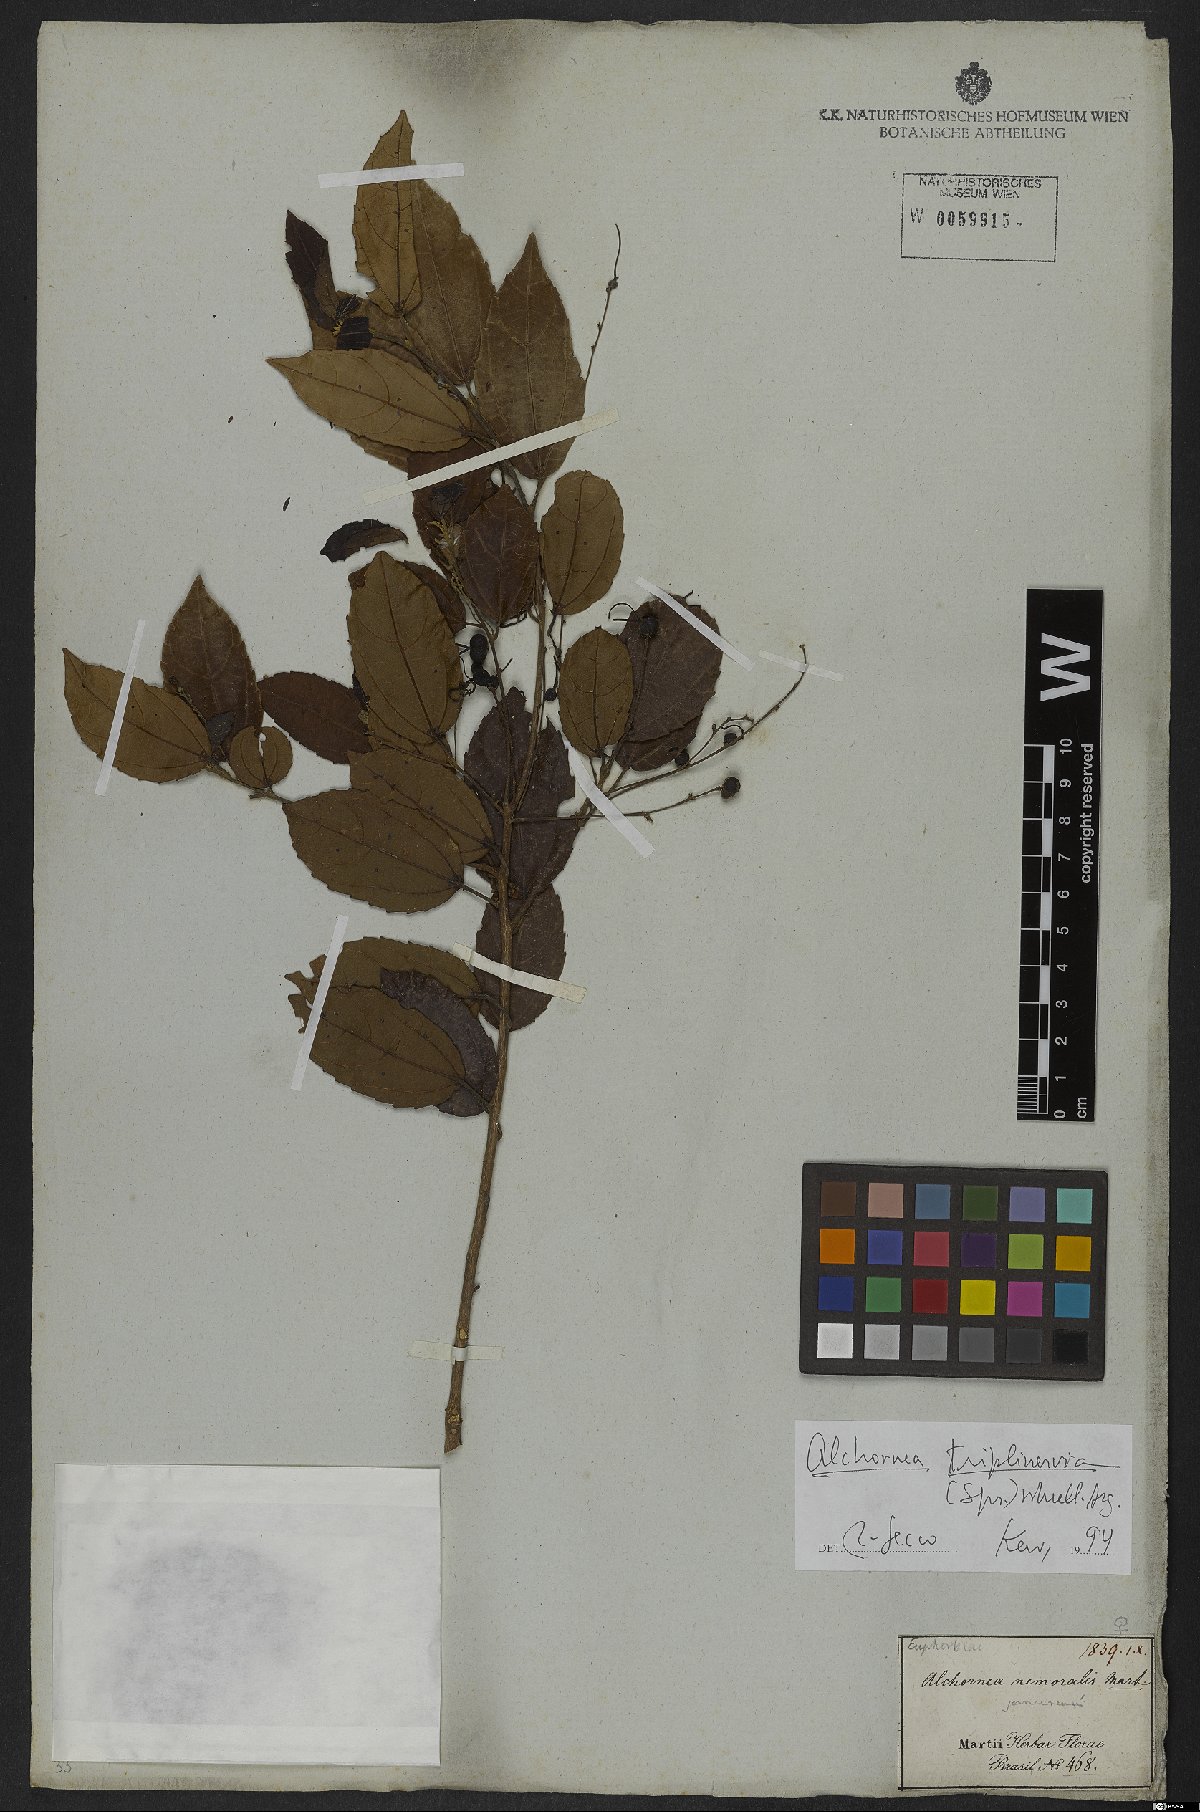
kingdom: Plantae
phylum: Tracheophyta
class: Magnoliopsida
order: Malpighiales
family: Euphorbiaceae
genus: Alchornea
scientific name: Alchornea triplinervia
